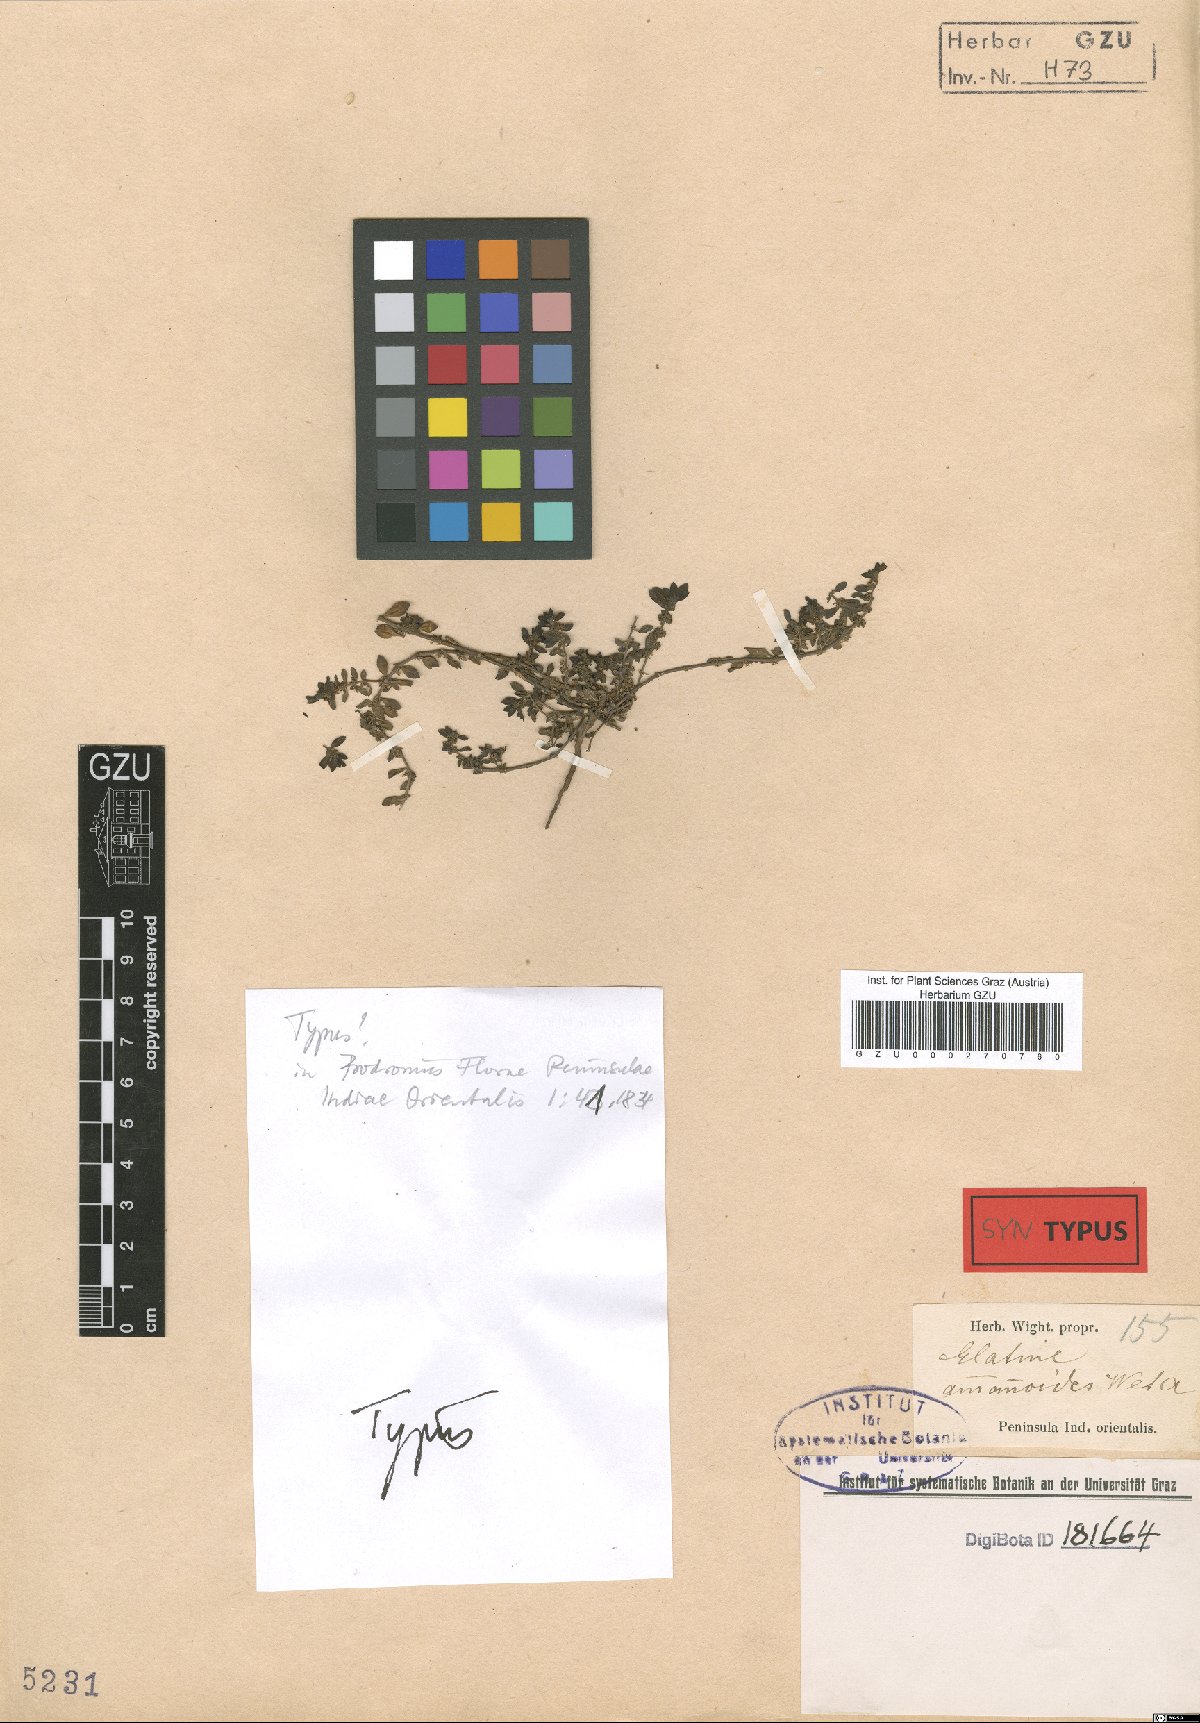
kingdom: Plantae
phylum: Tracheophyta
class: Magnoliopsida
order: Malpighiales
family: Elatinaceae
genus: Bergia
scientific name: Bergia ammannioides
